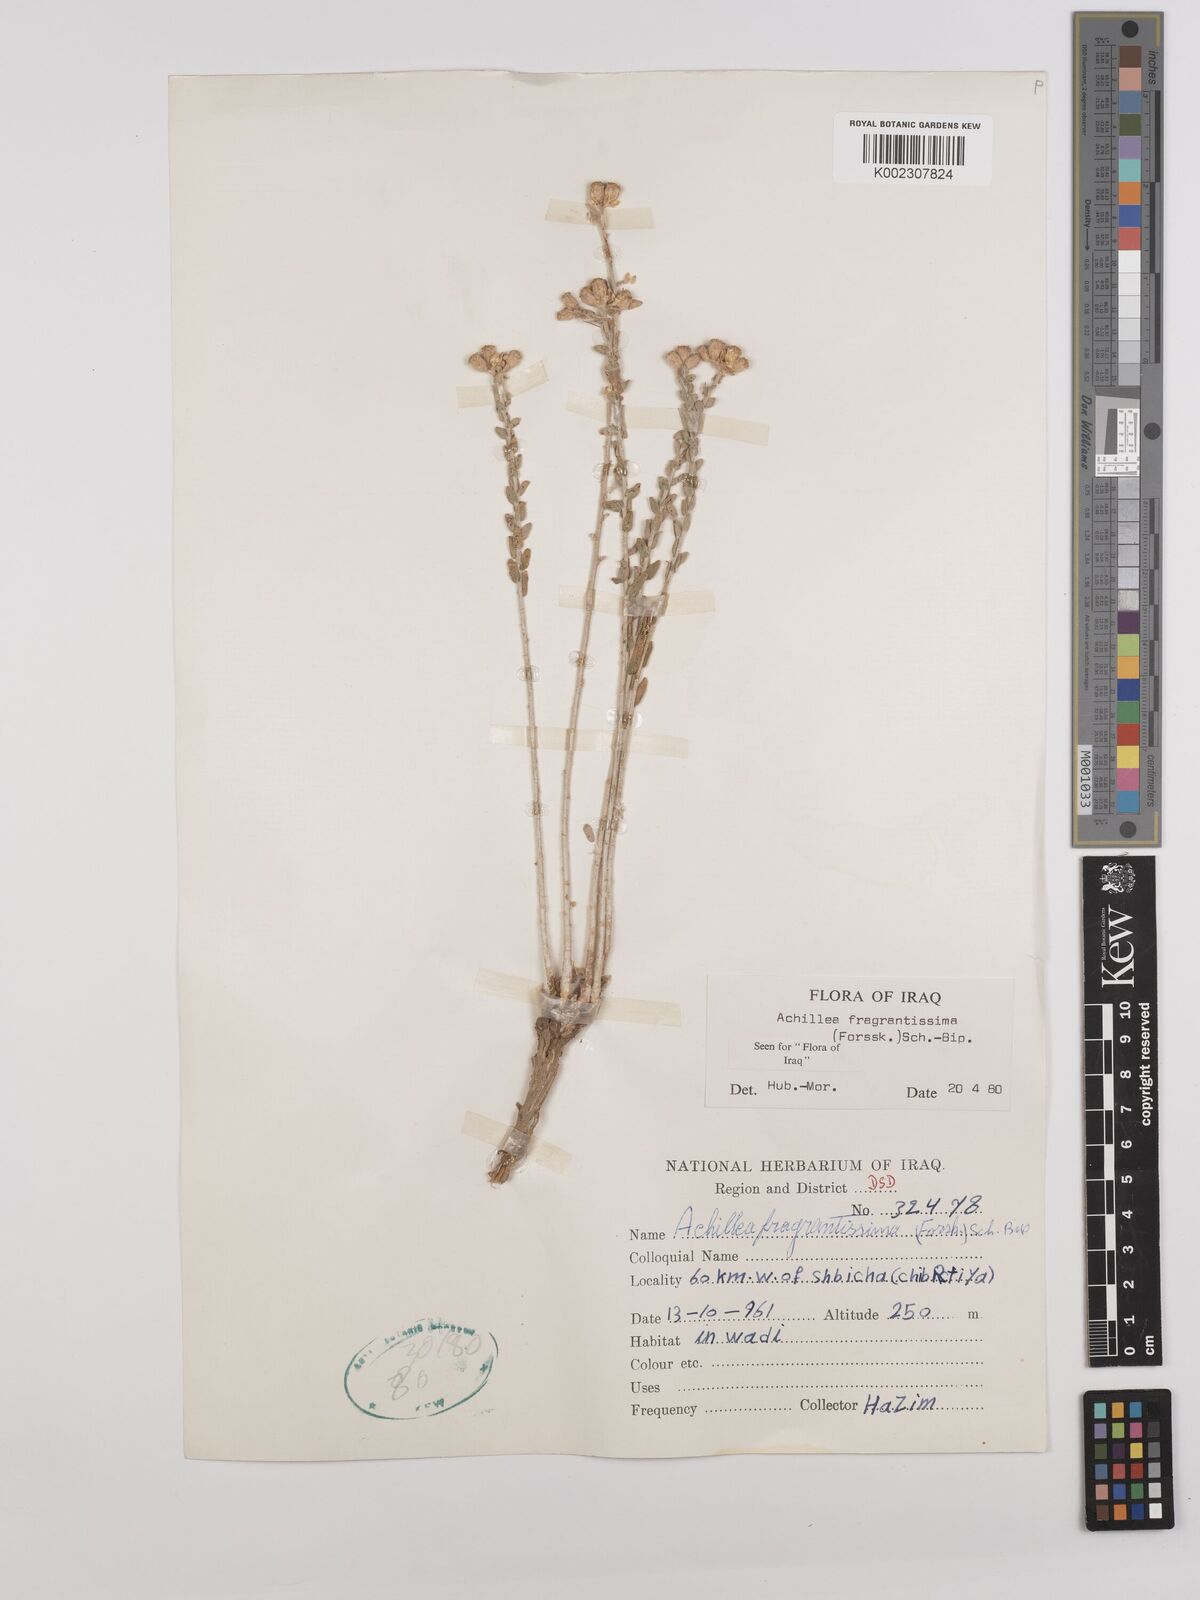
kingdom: Plantae
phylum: Tracheophyta
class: Magnoliopsida
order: Asterales
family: Asteraceae
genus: Achillea
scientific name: Achillea fragrantissima
